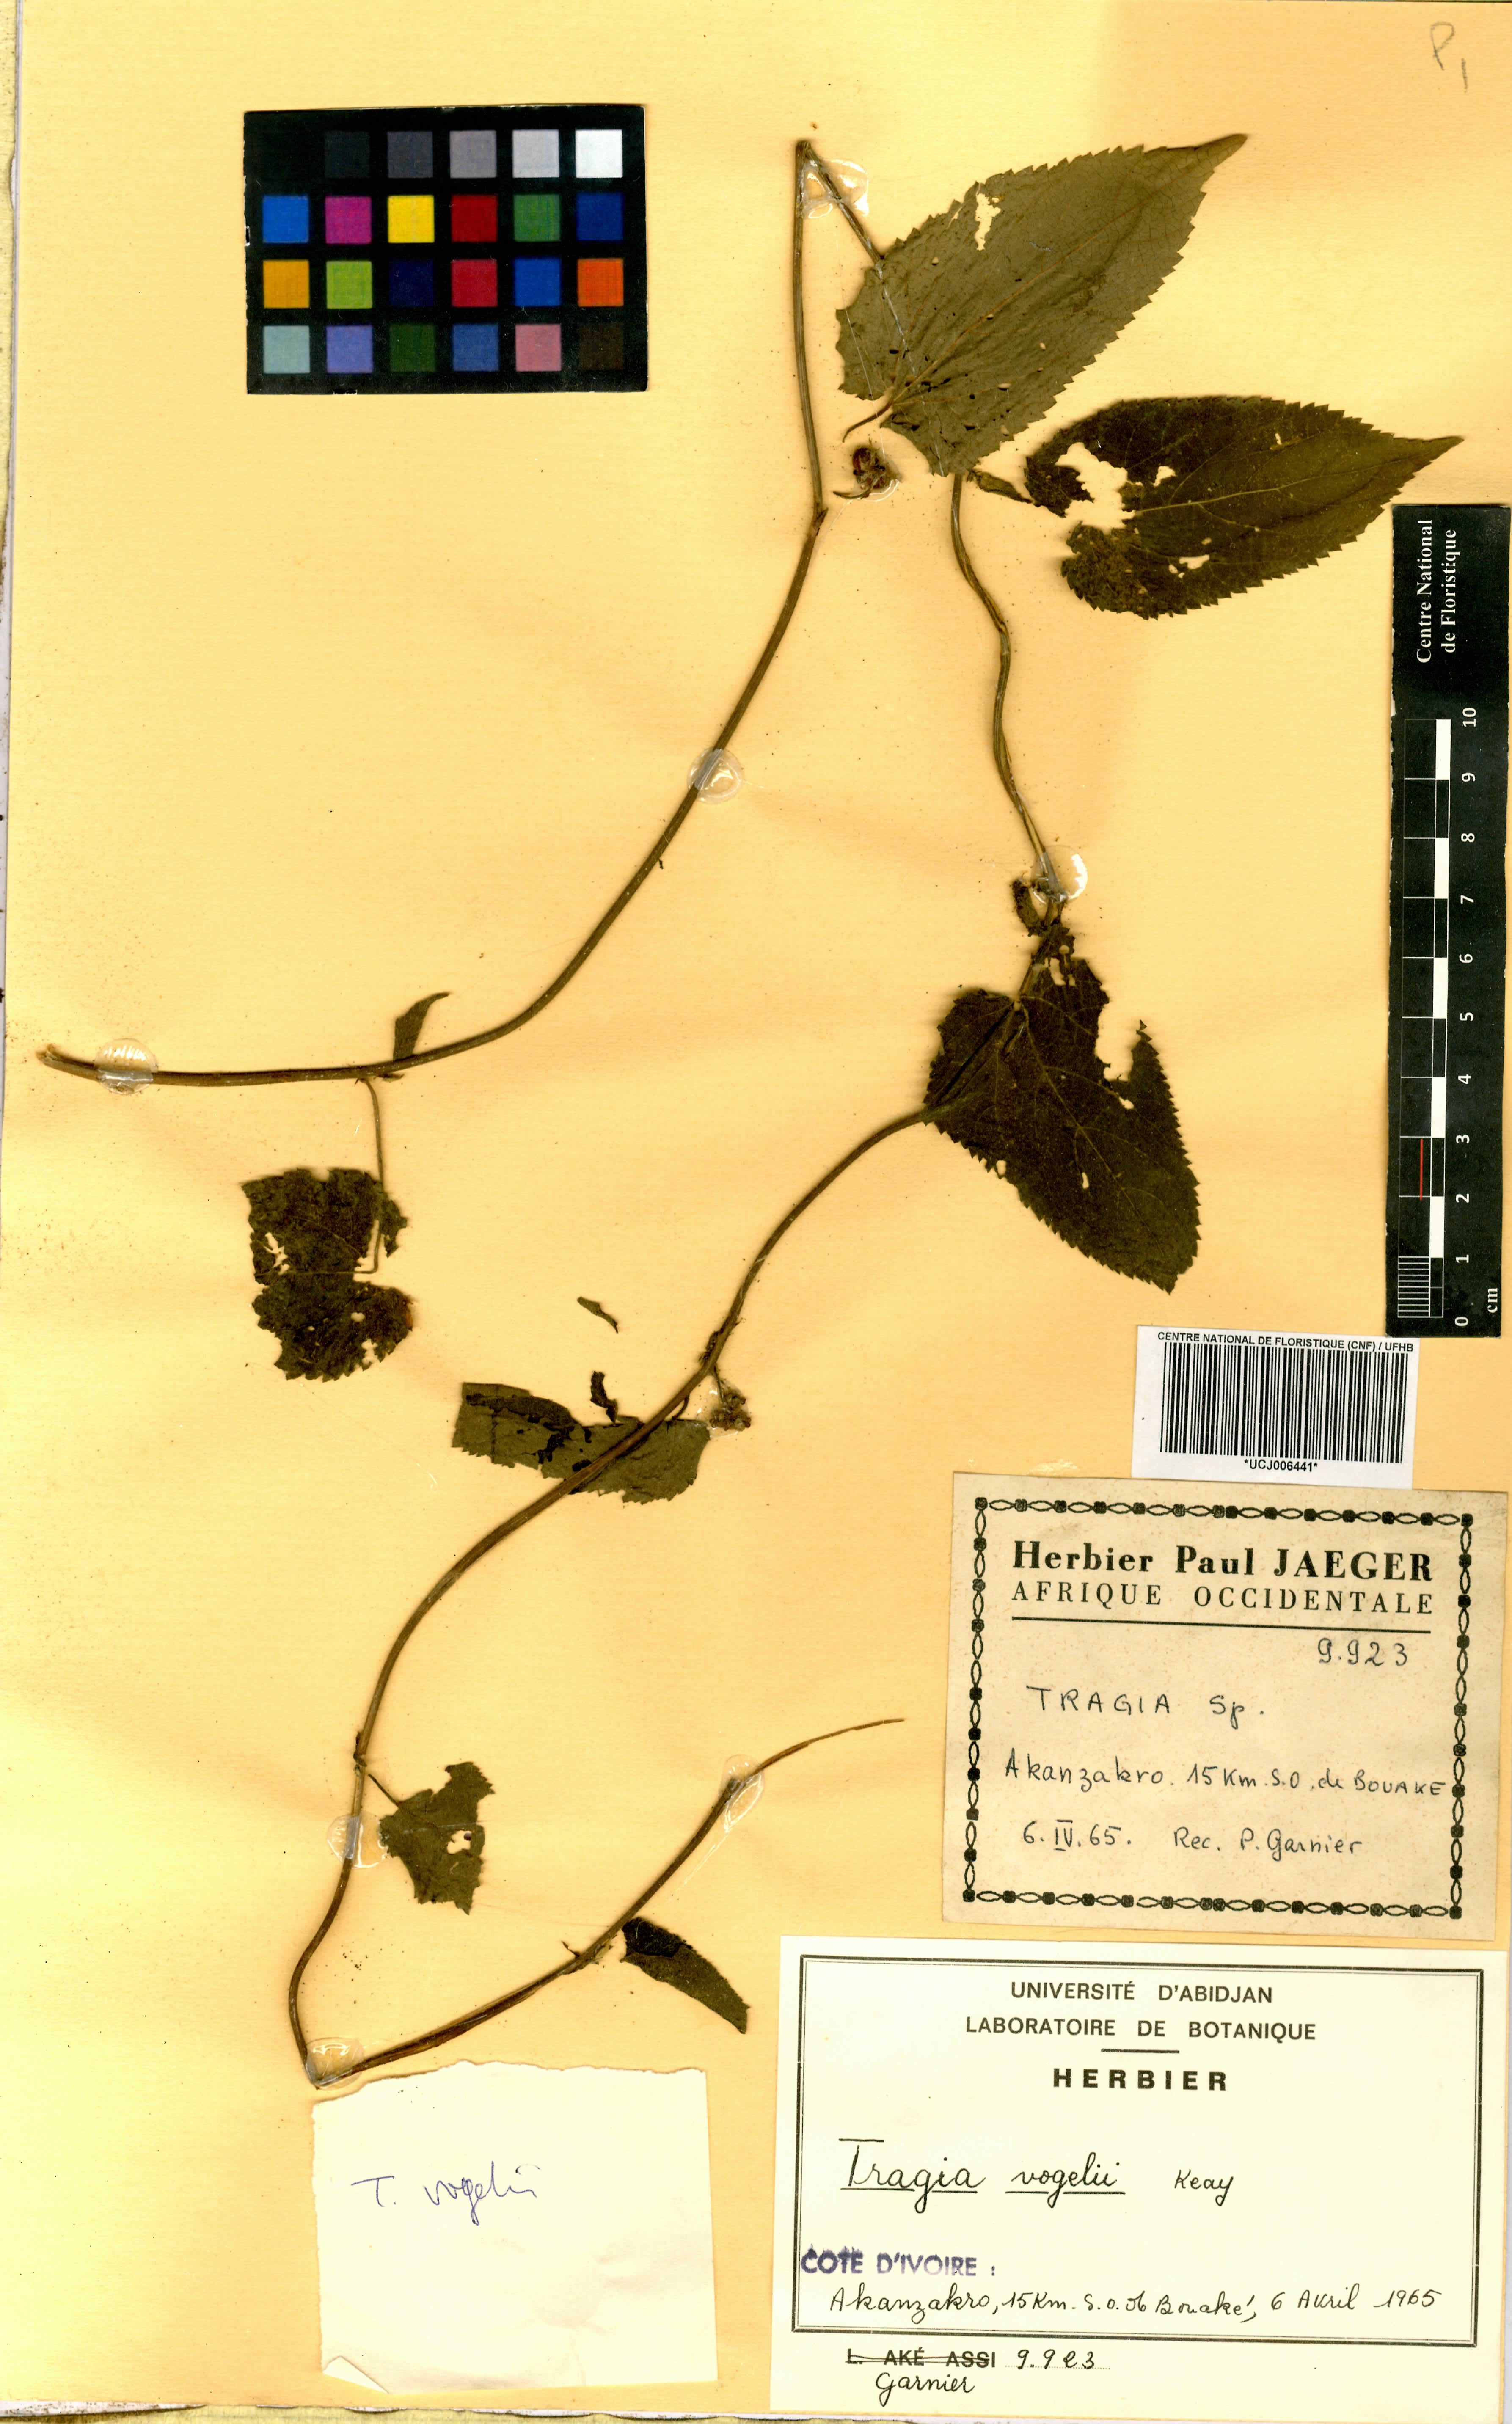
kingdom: Plantae
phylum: Tracheophyta
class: Magnoliopsida
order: Malpighiales
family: Euphorbiaceae
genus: Tragia
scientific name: Tragia vogelii
